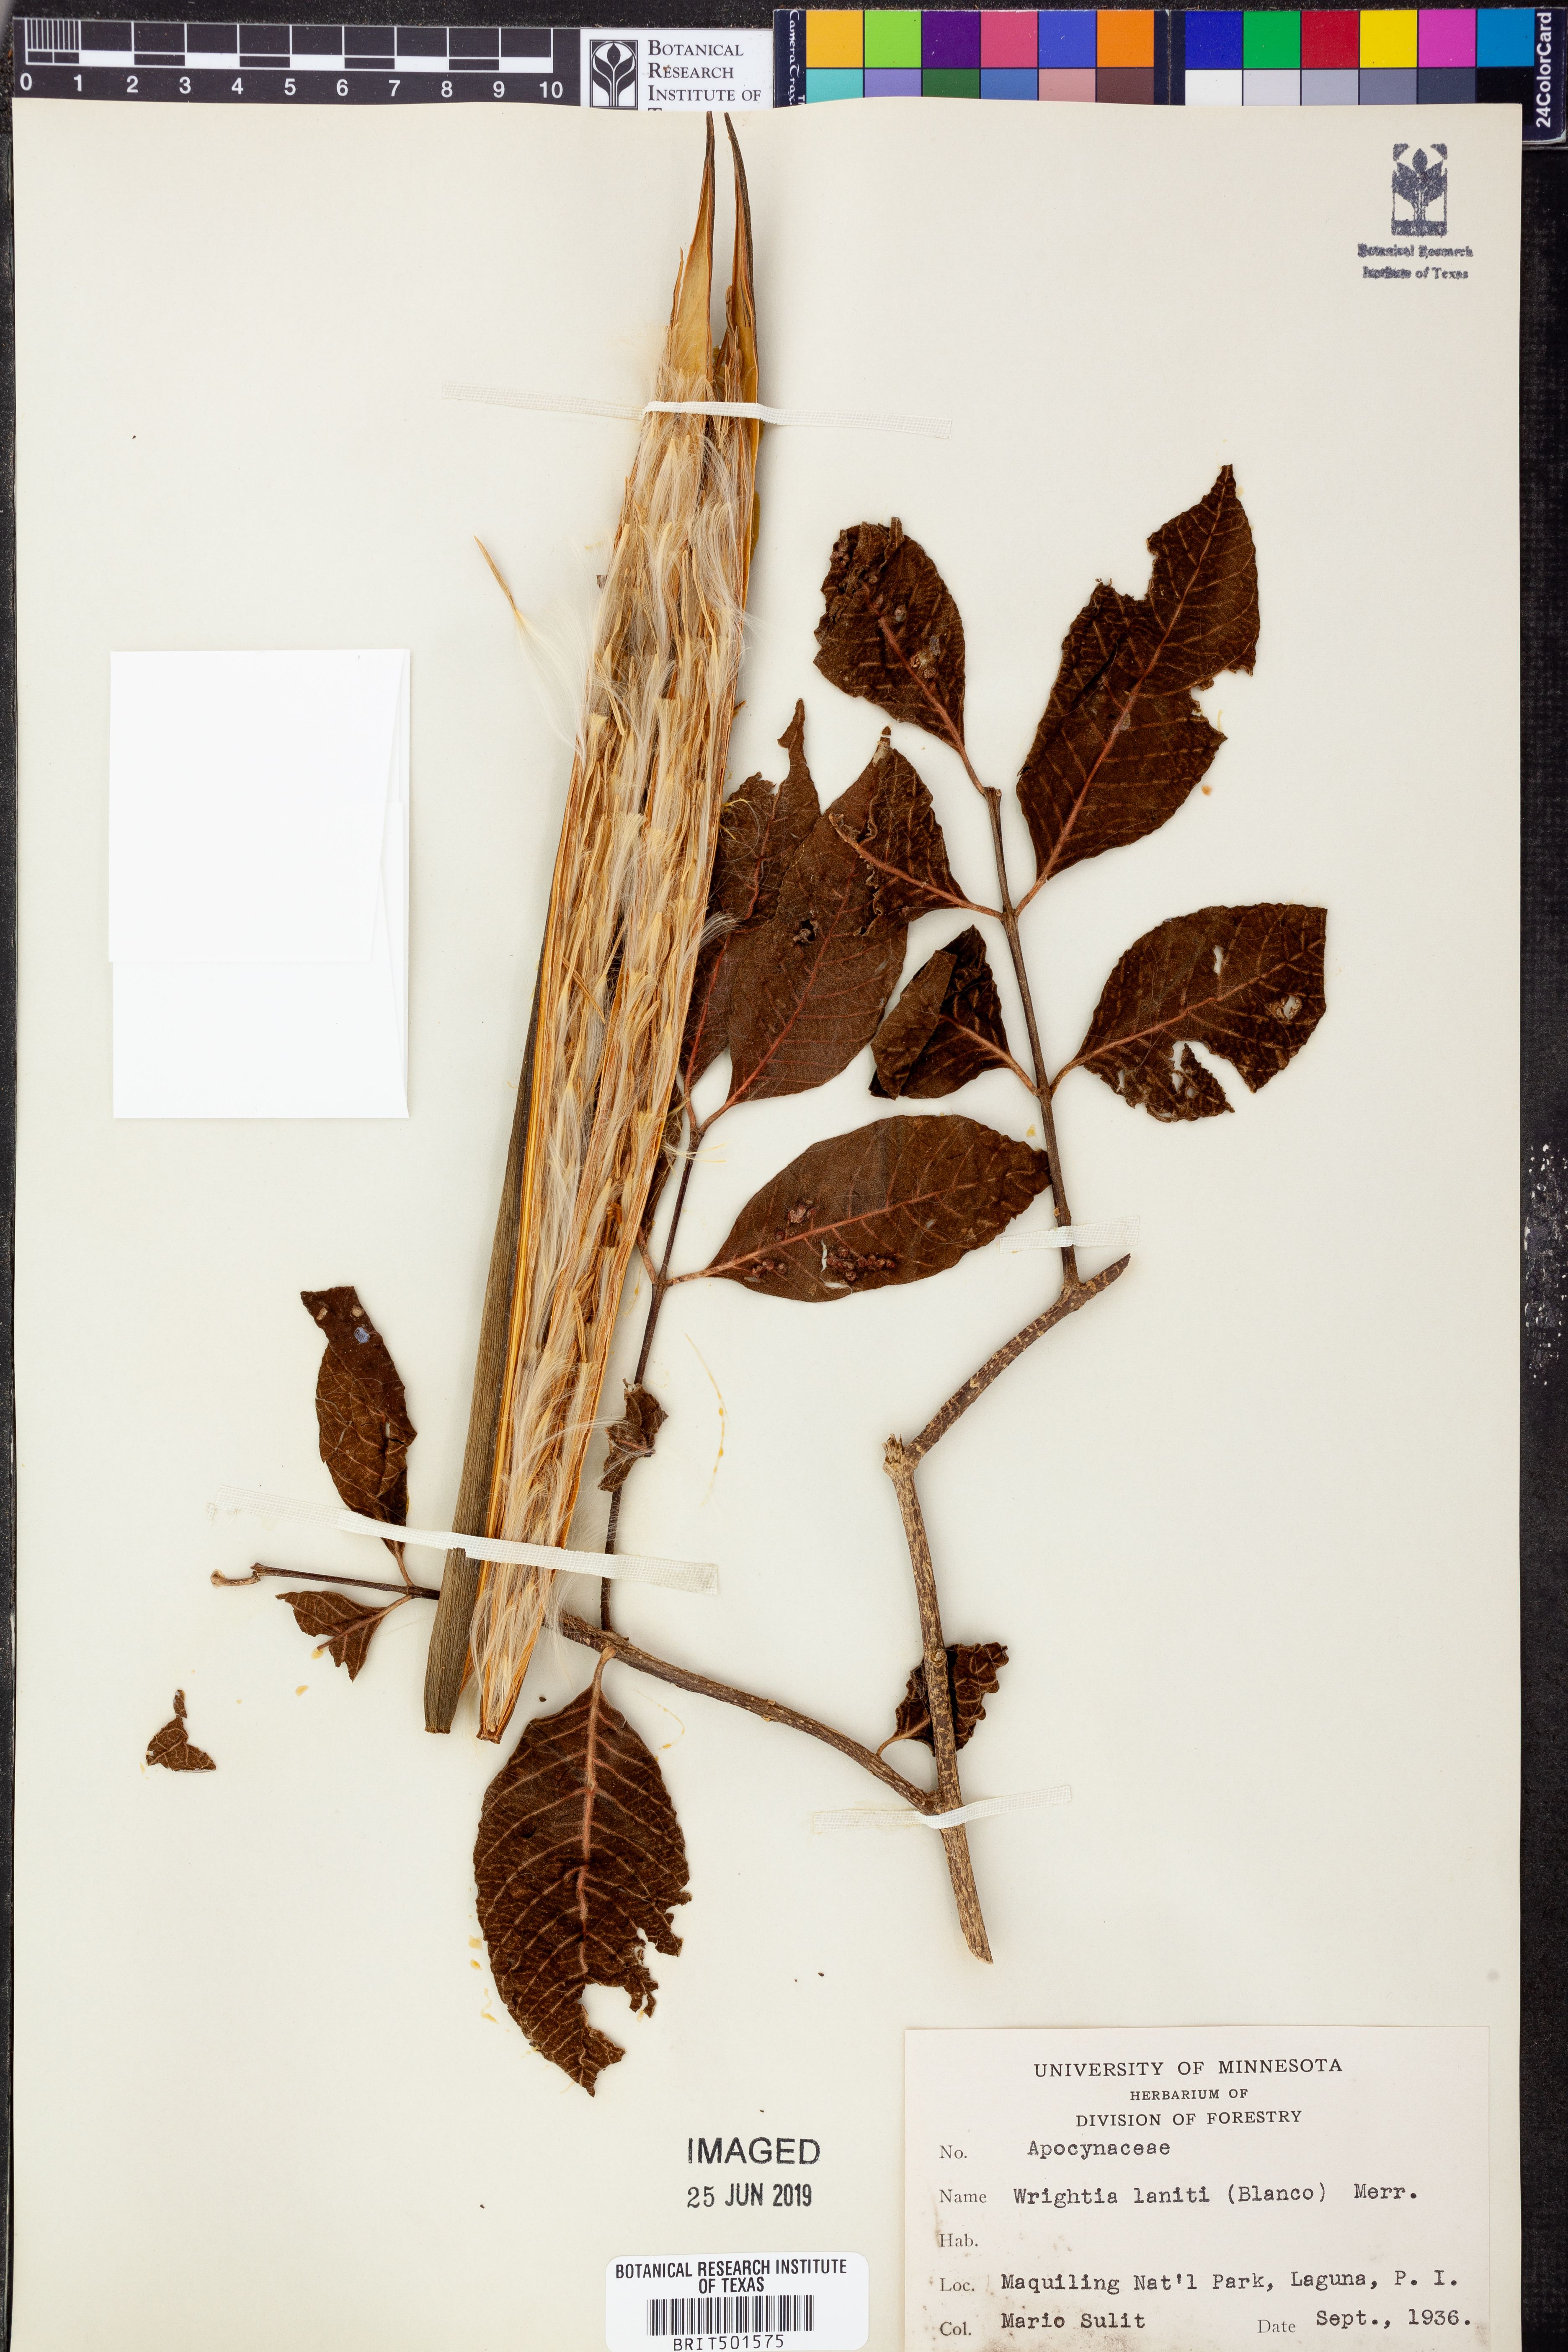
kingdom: Plantae
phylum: Tracheophyta
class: Magnoliopsida
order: Gentianales
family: Apocynaceae
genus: Wrightia
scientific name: Wrightia pubescens
